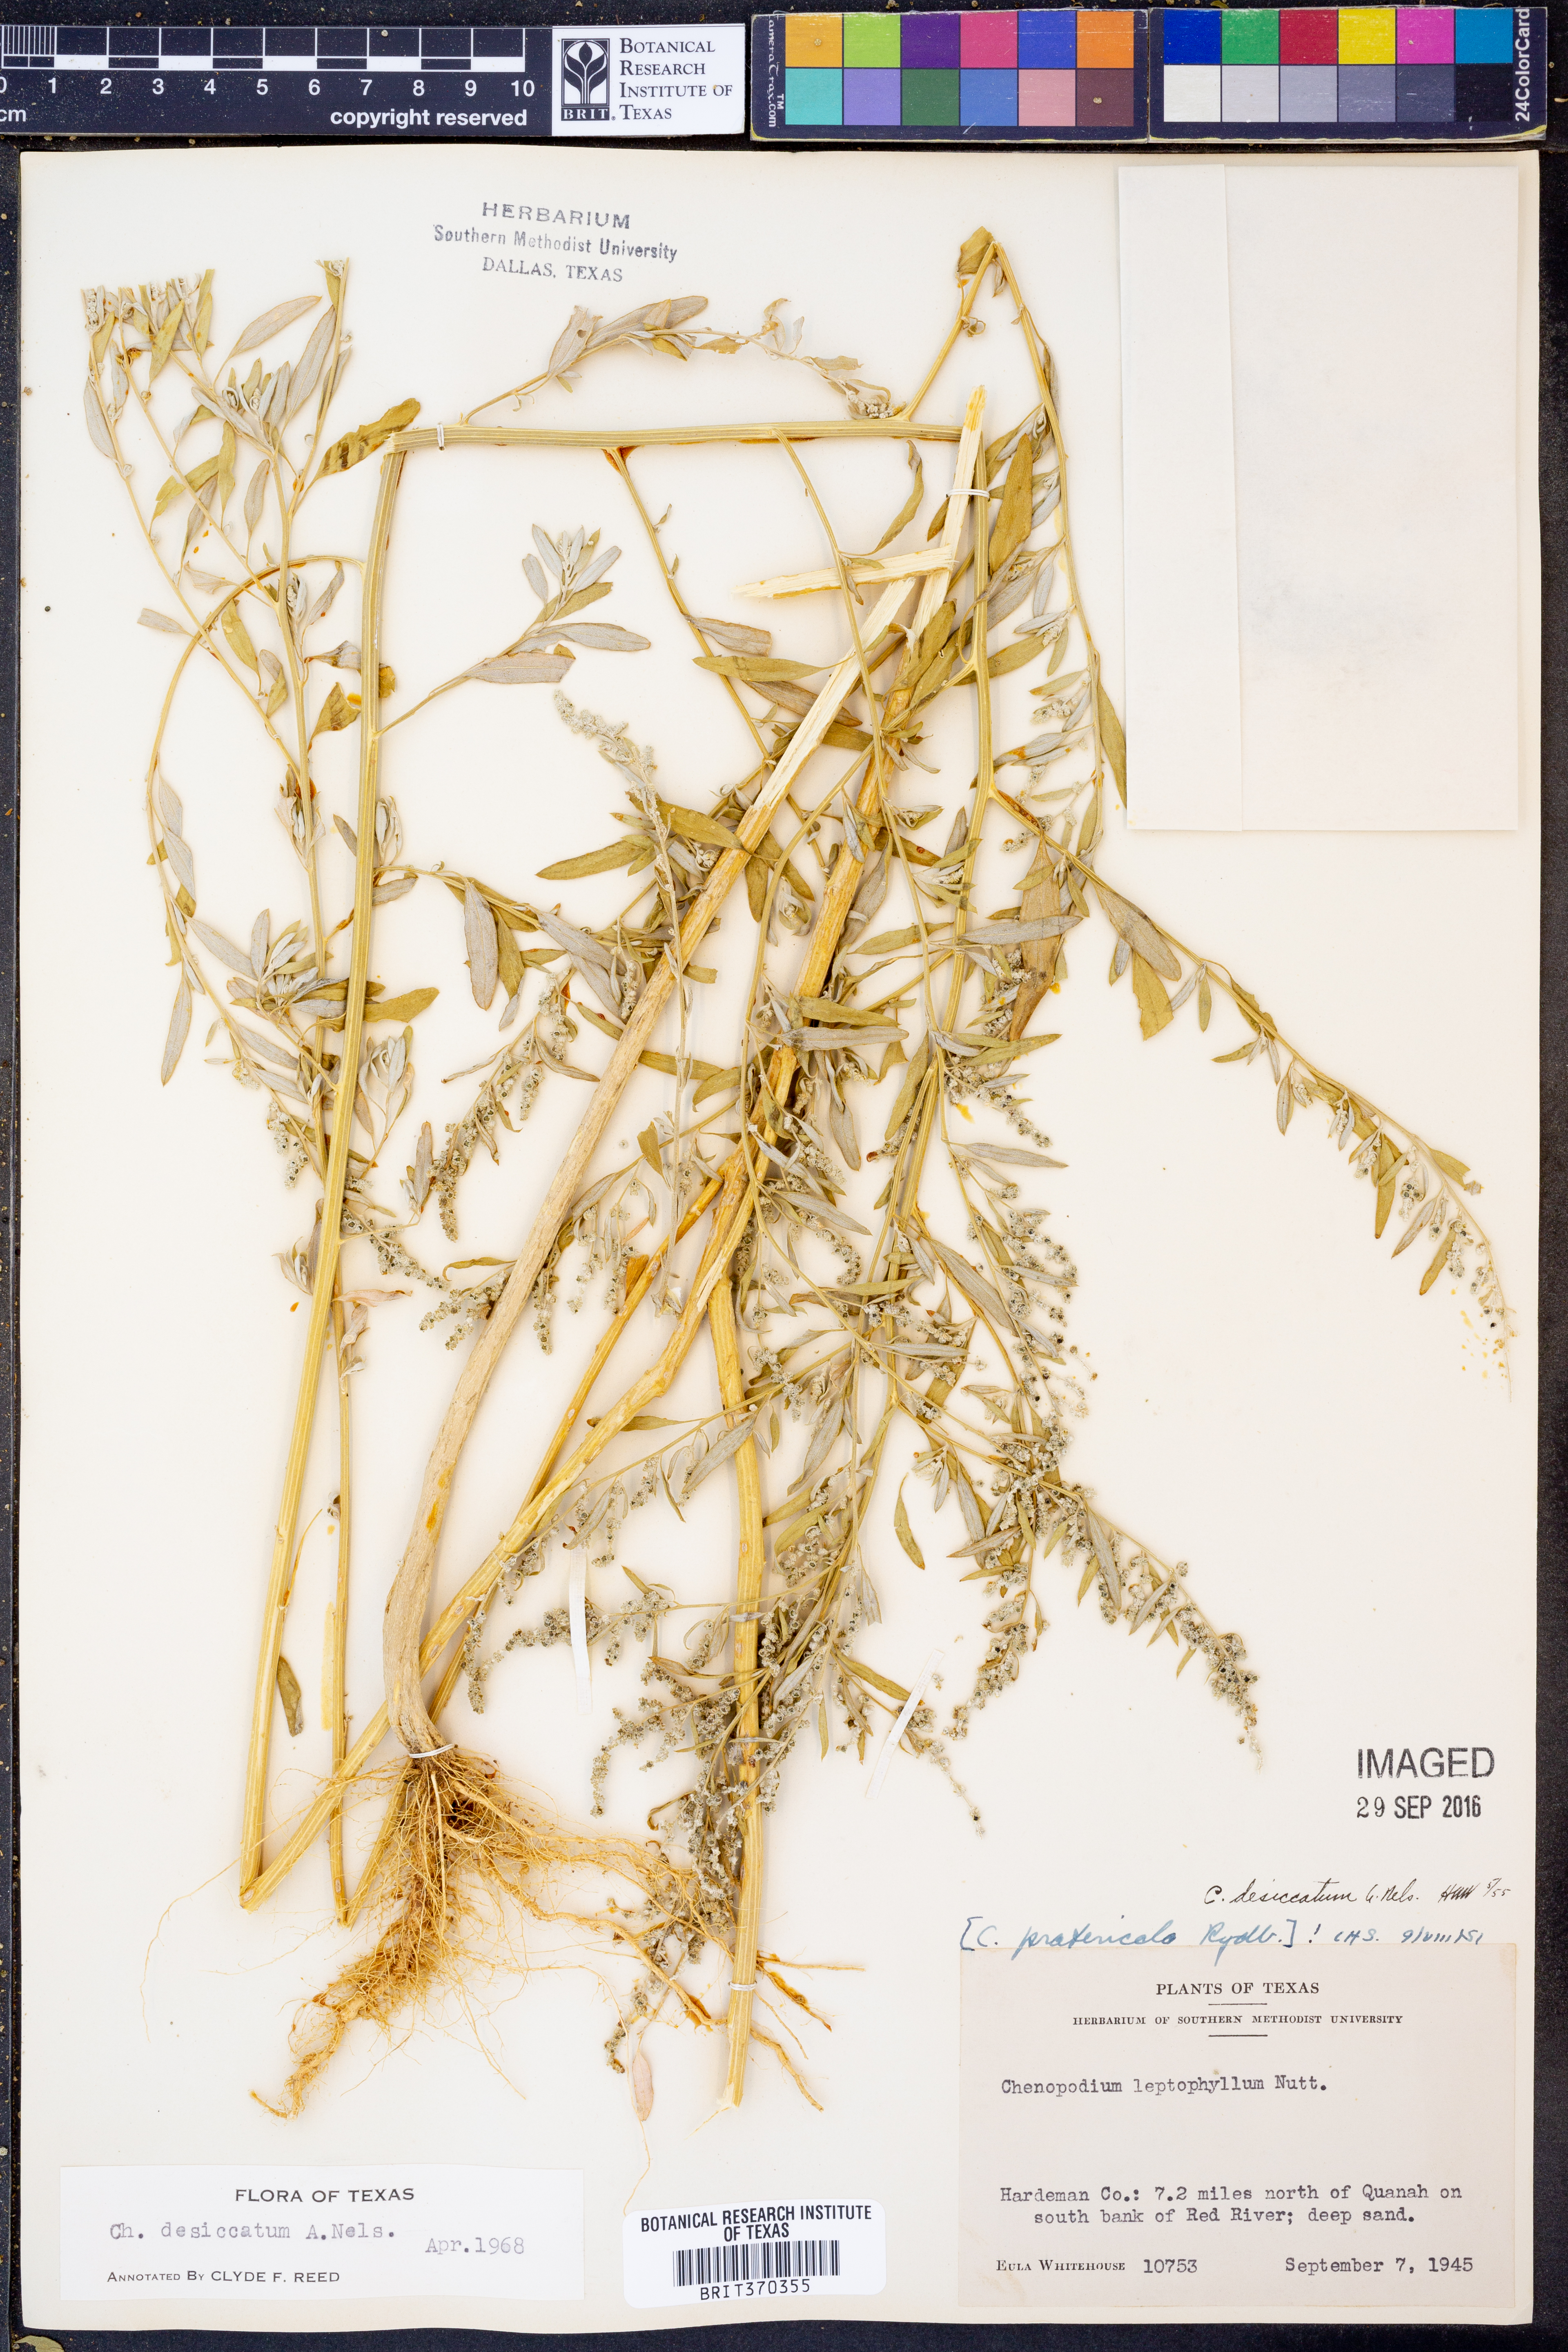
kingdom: Plantae
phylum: Tracheophyta
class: Magnoliopsida
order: Caryophyllales
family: Amaranthaceae
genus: Chenopodium
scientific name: Chenopodium desiccatum
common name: Slimleaf goosefoot
